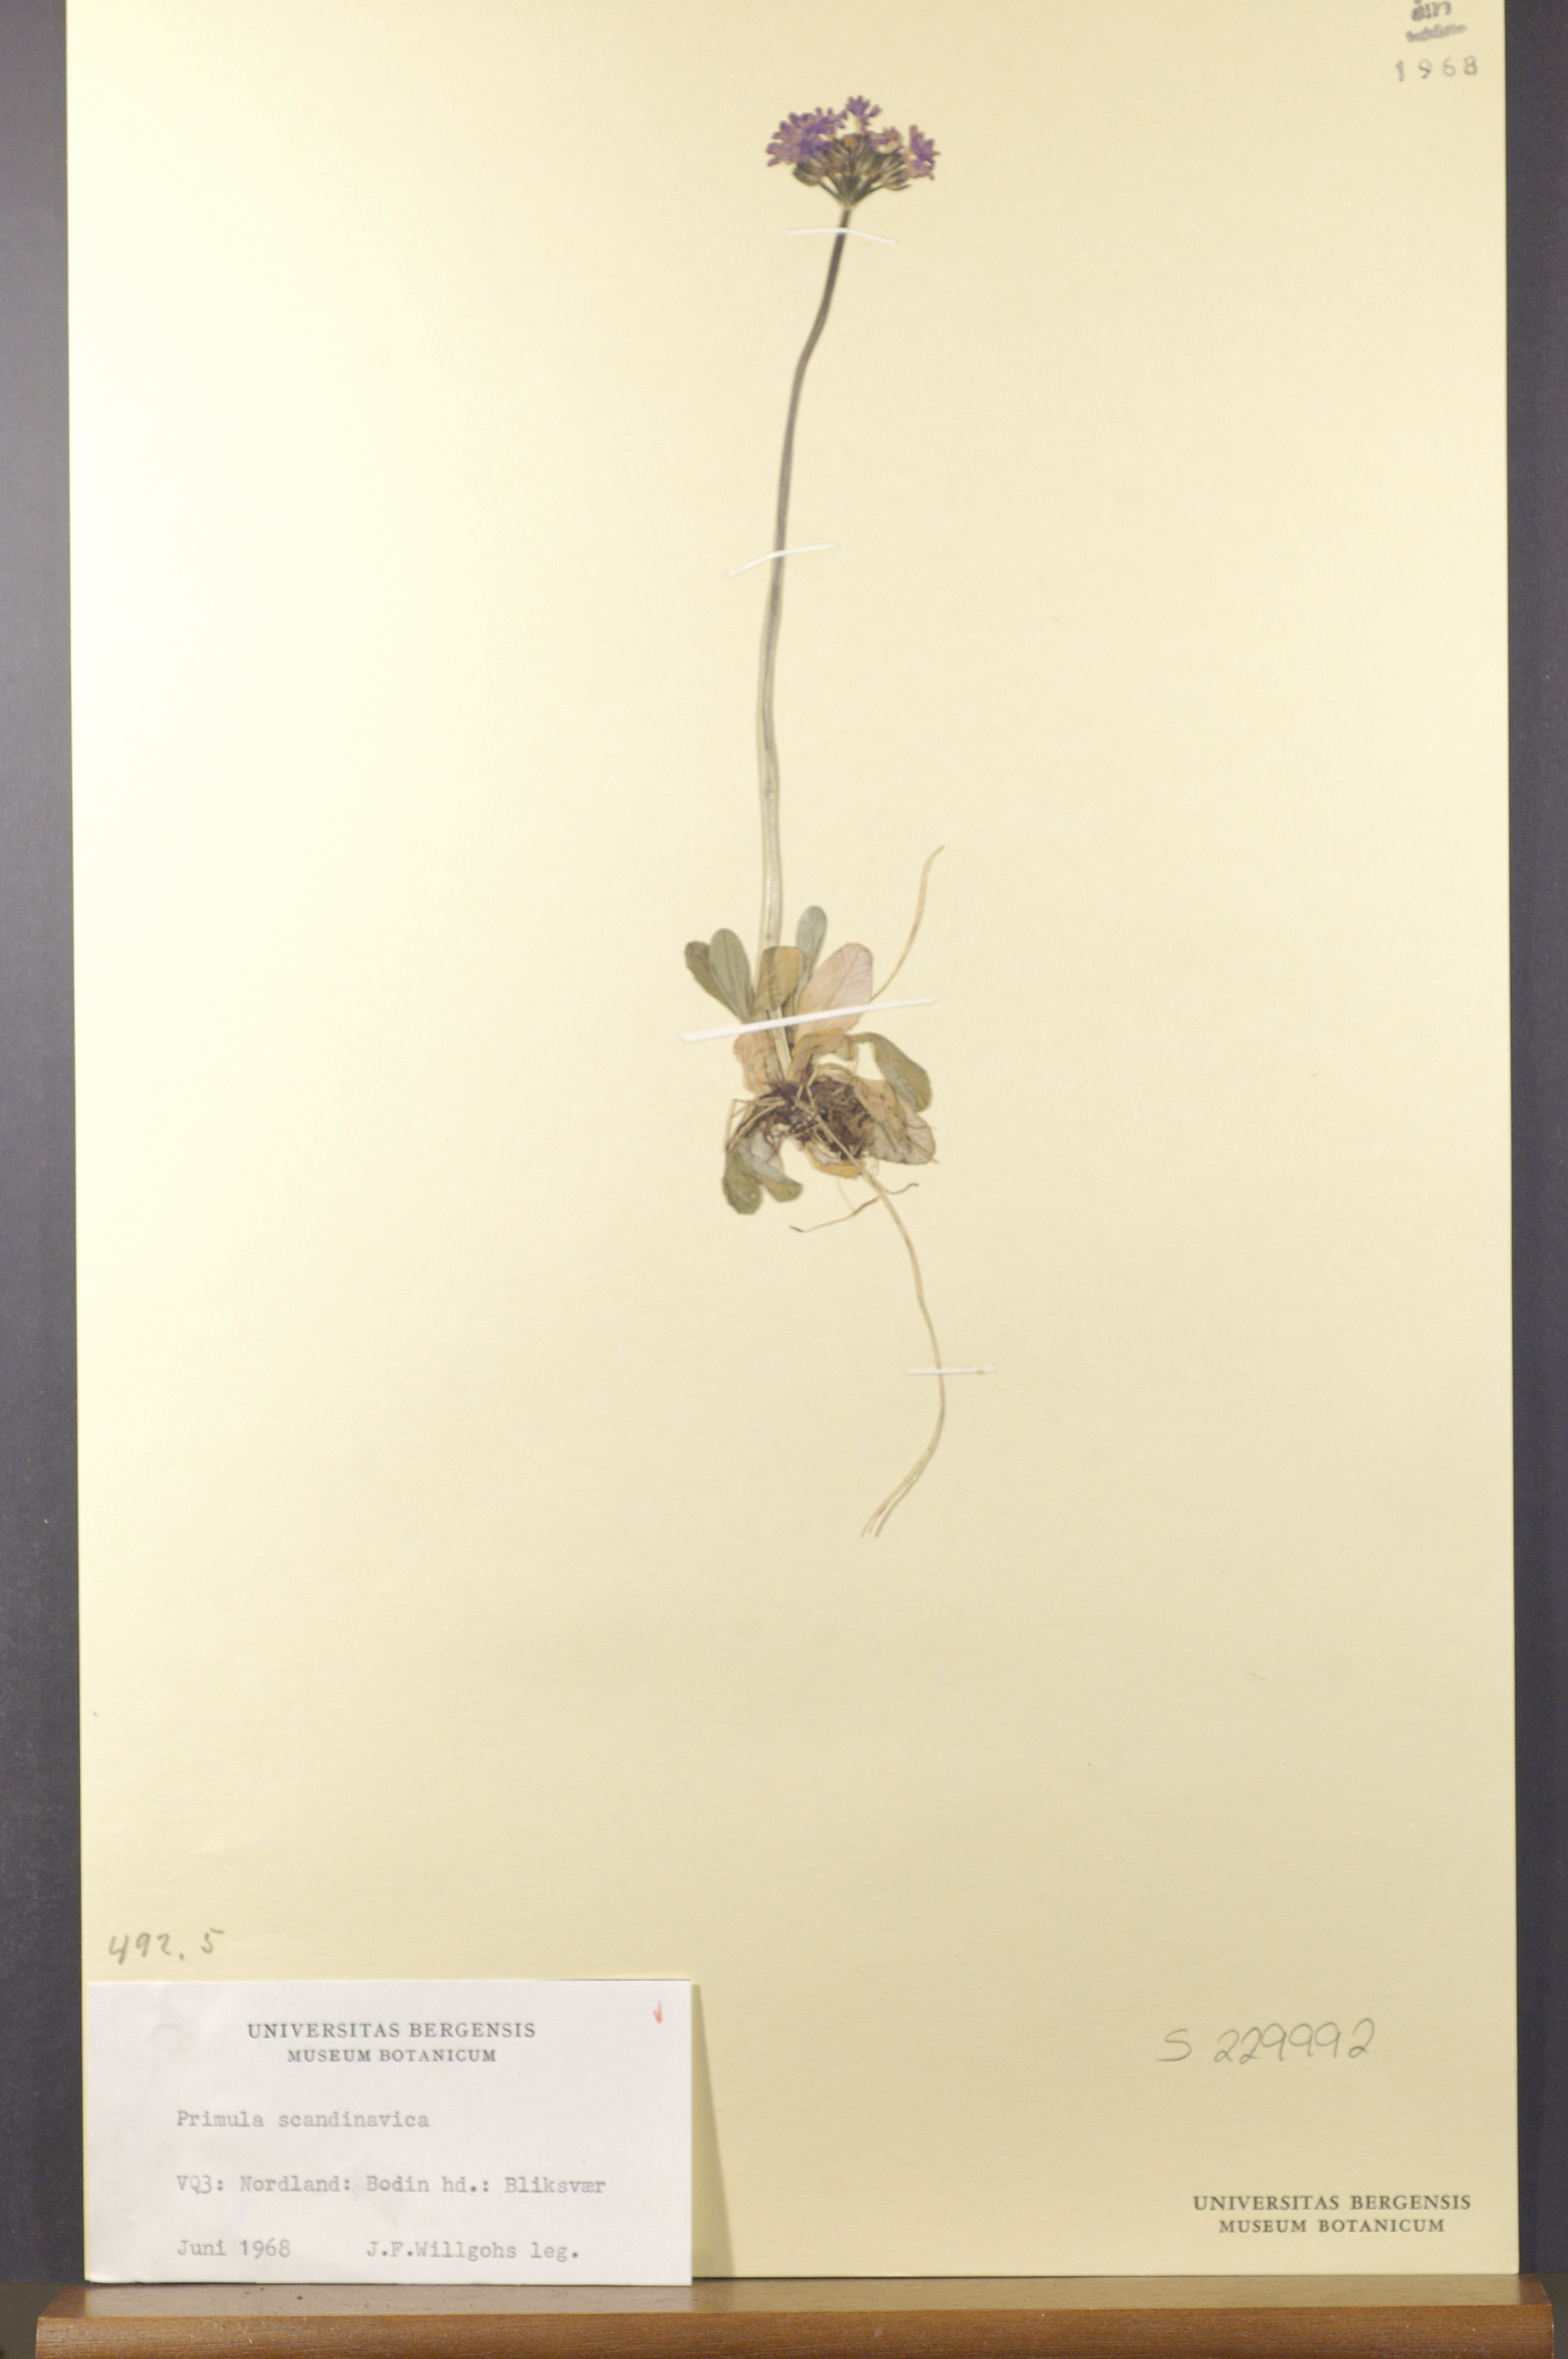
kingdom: Plantae
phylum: Tracheophyta
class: Magnoliopsida
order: Ericales
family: Primulaceae
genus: Primula
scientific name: Primula scandinavica
